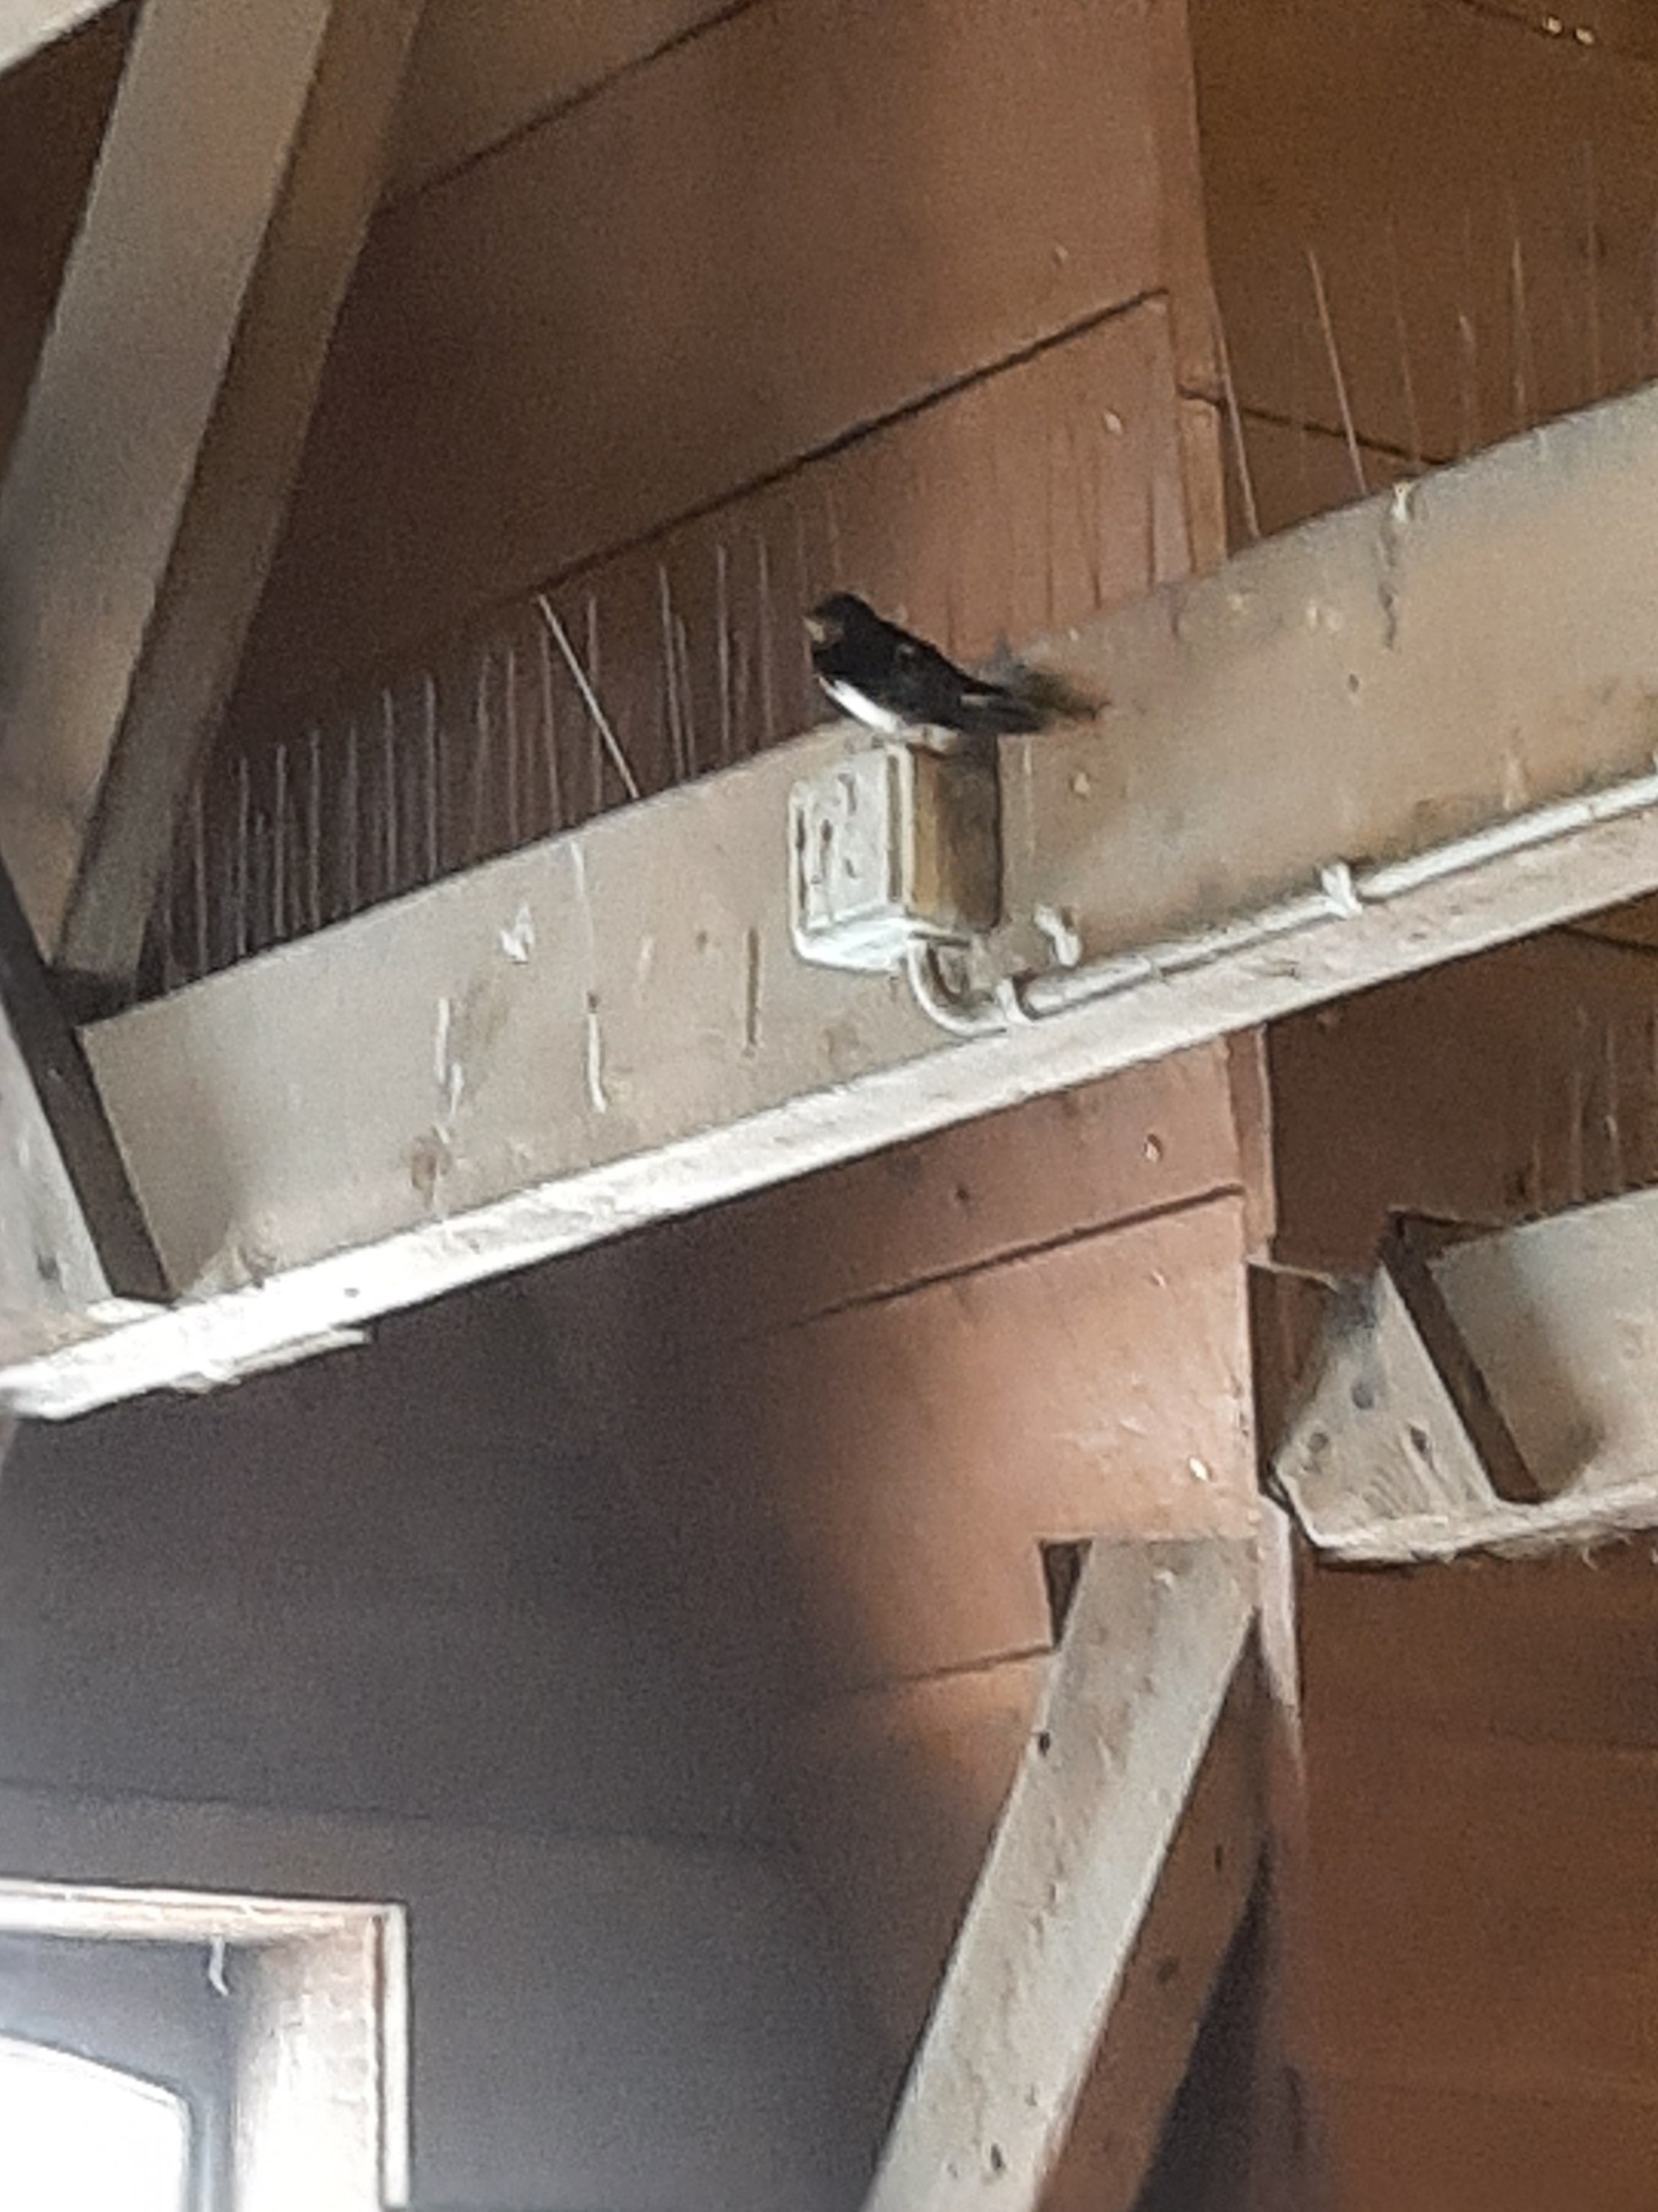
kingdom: Animalia
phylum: Chordata
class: Aves
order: Passeriformes
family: Hirundinidae
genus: Hirundo
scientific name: Hirundo rustica
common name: Landsvale
